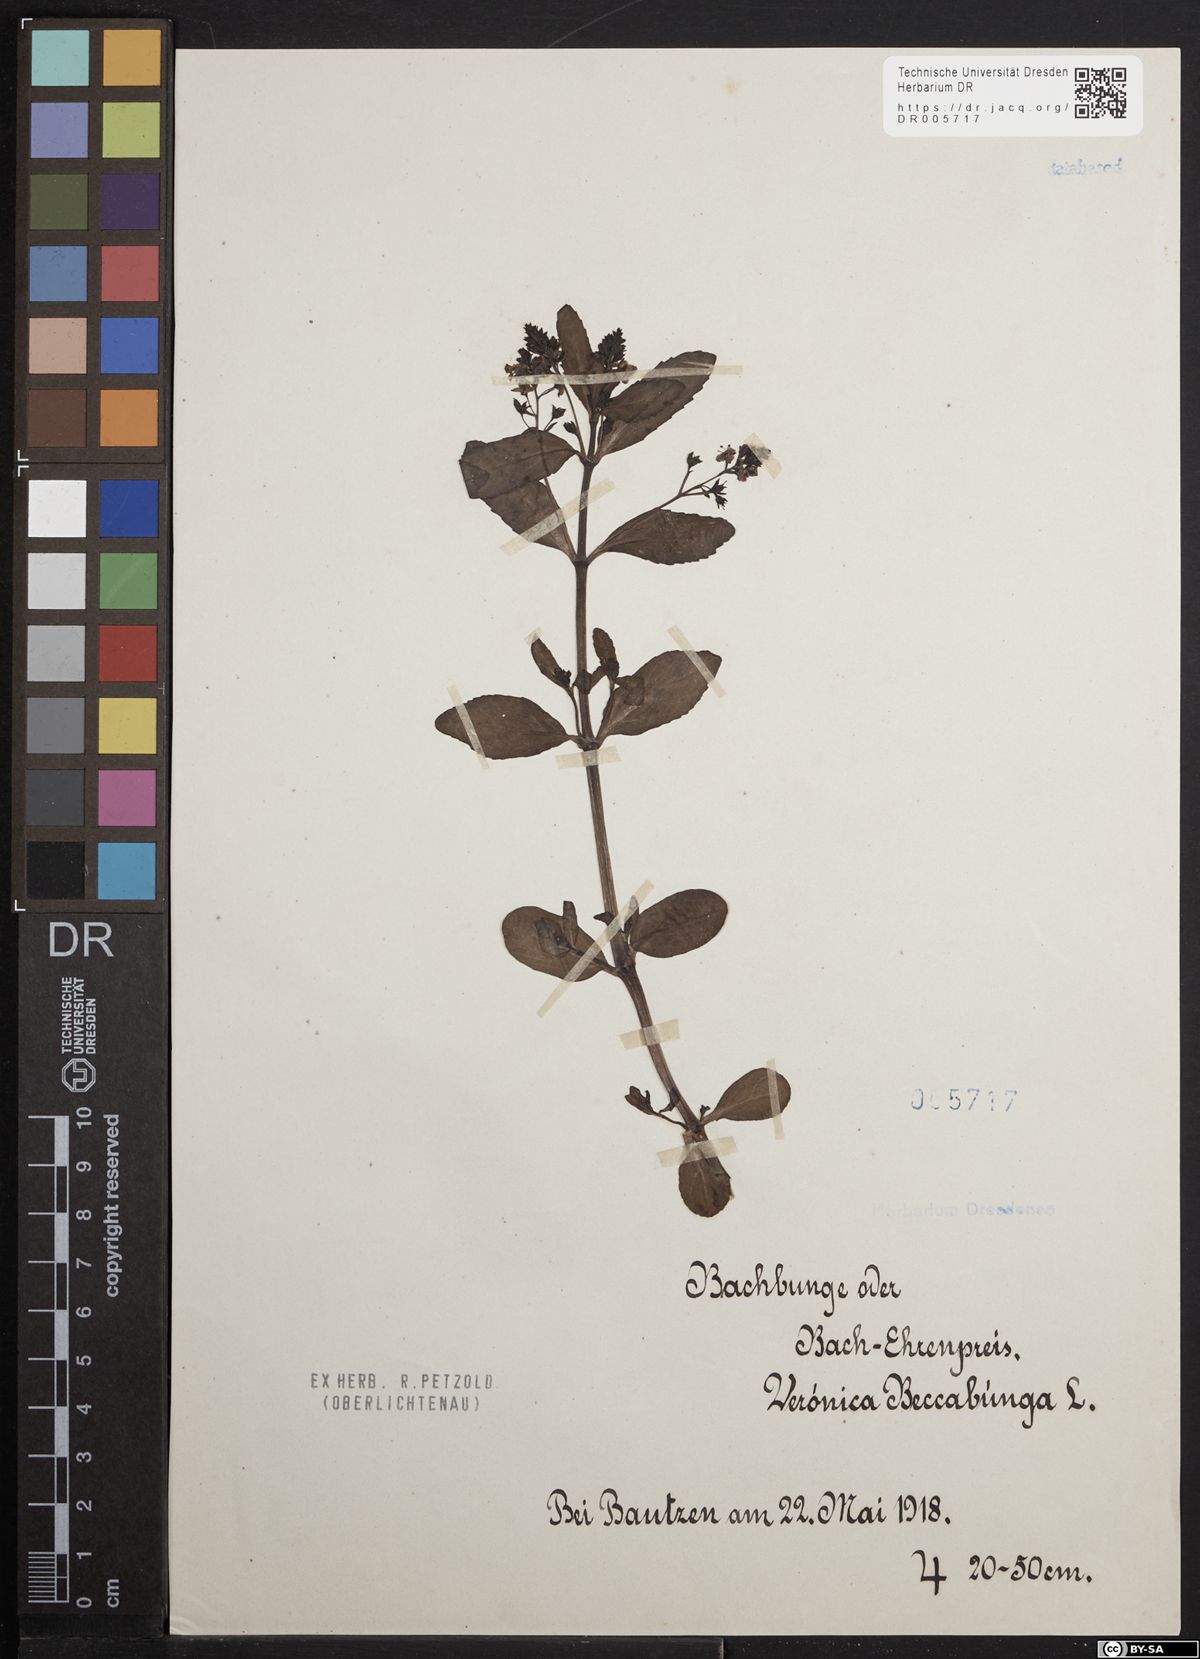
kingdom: Plantae
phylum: Tracheophyta
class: Magnoliopsida
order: Lamiales
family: Plantaginaceae
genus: Veronica
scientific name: Veronica beccabunga
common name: Brooklime
